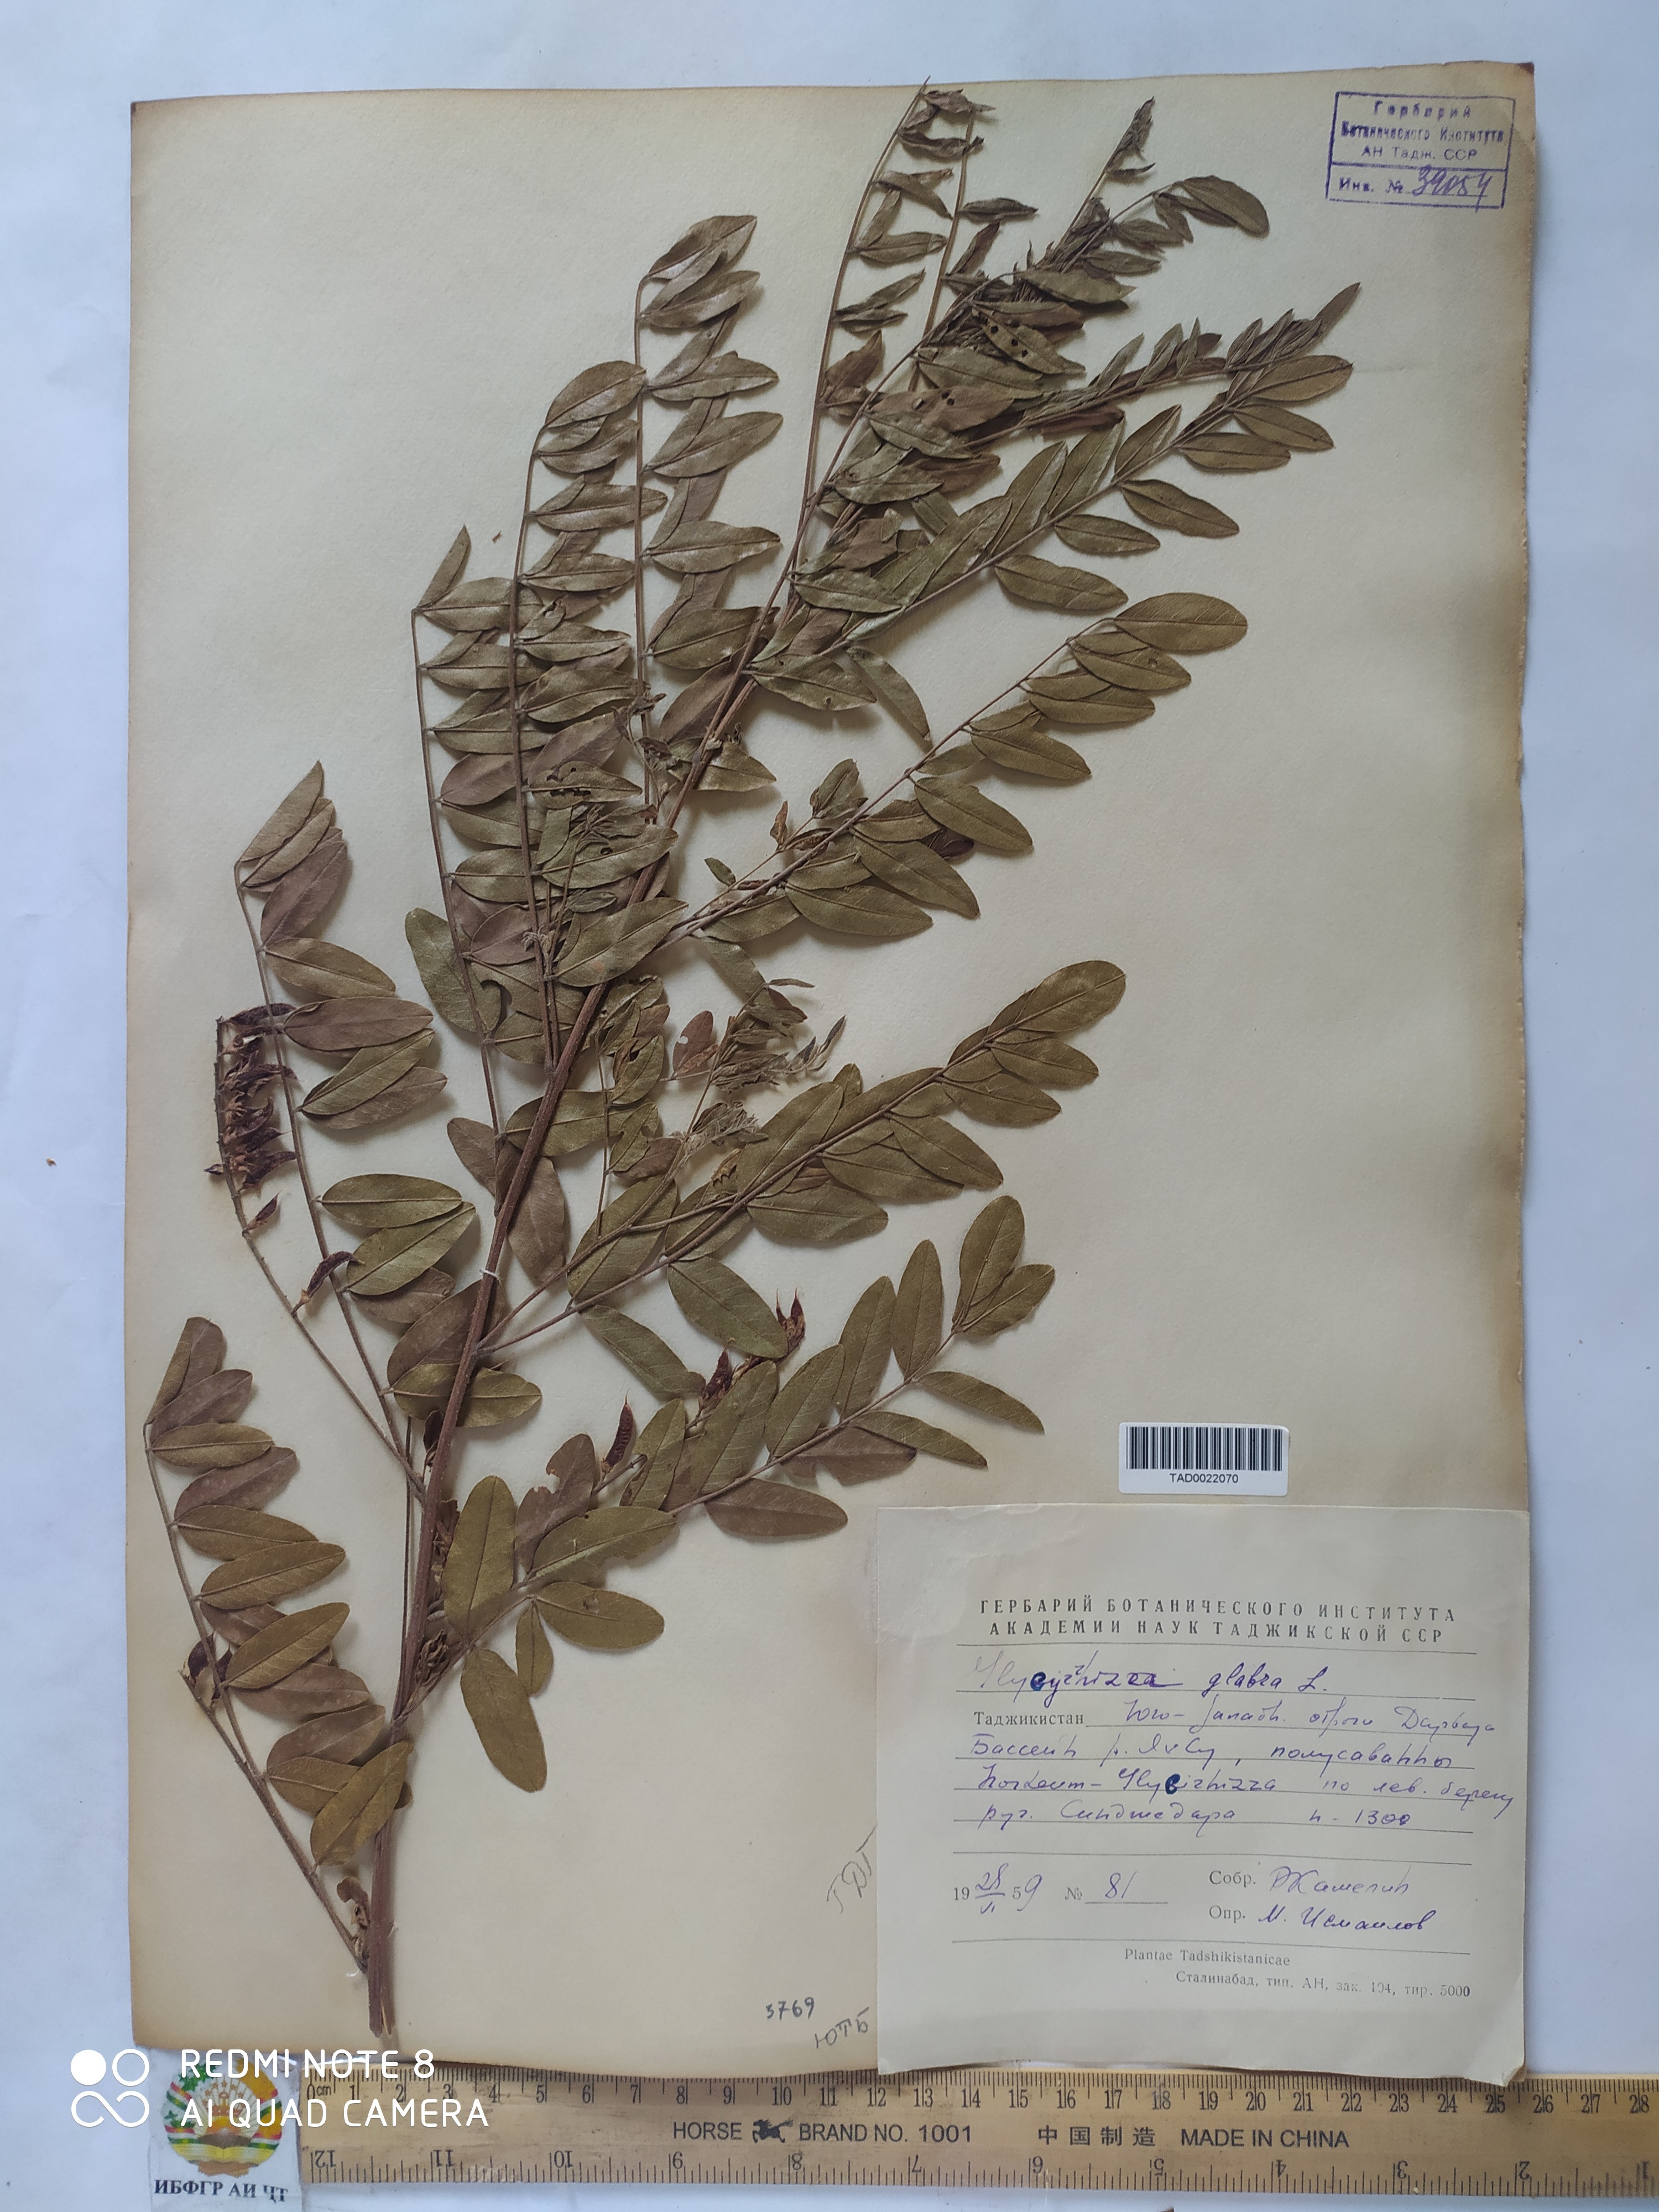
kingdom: Plantae
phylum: Tracheophyta
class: Magnoliopsida
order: Fabales
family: Fabaceae
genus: Glycyrrhiza
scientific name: Glycyrrhiza glabra
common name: Liquorice
